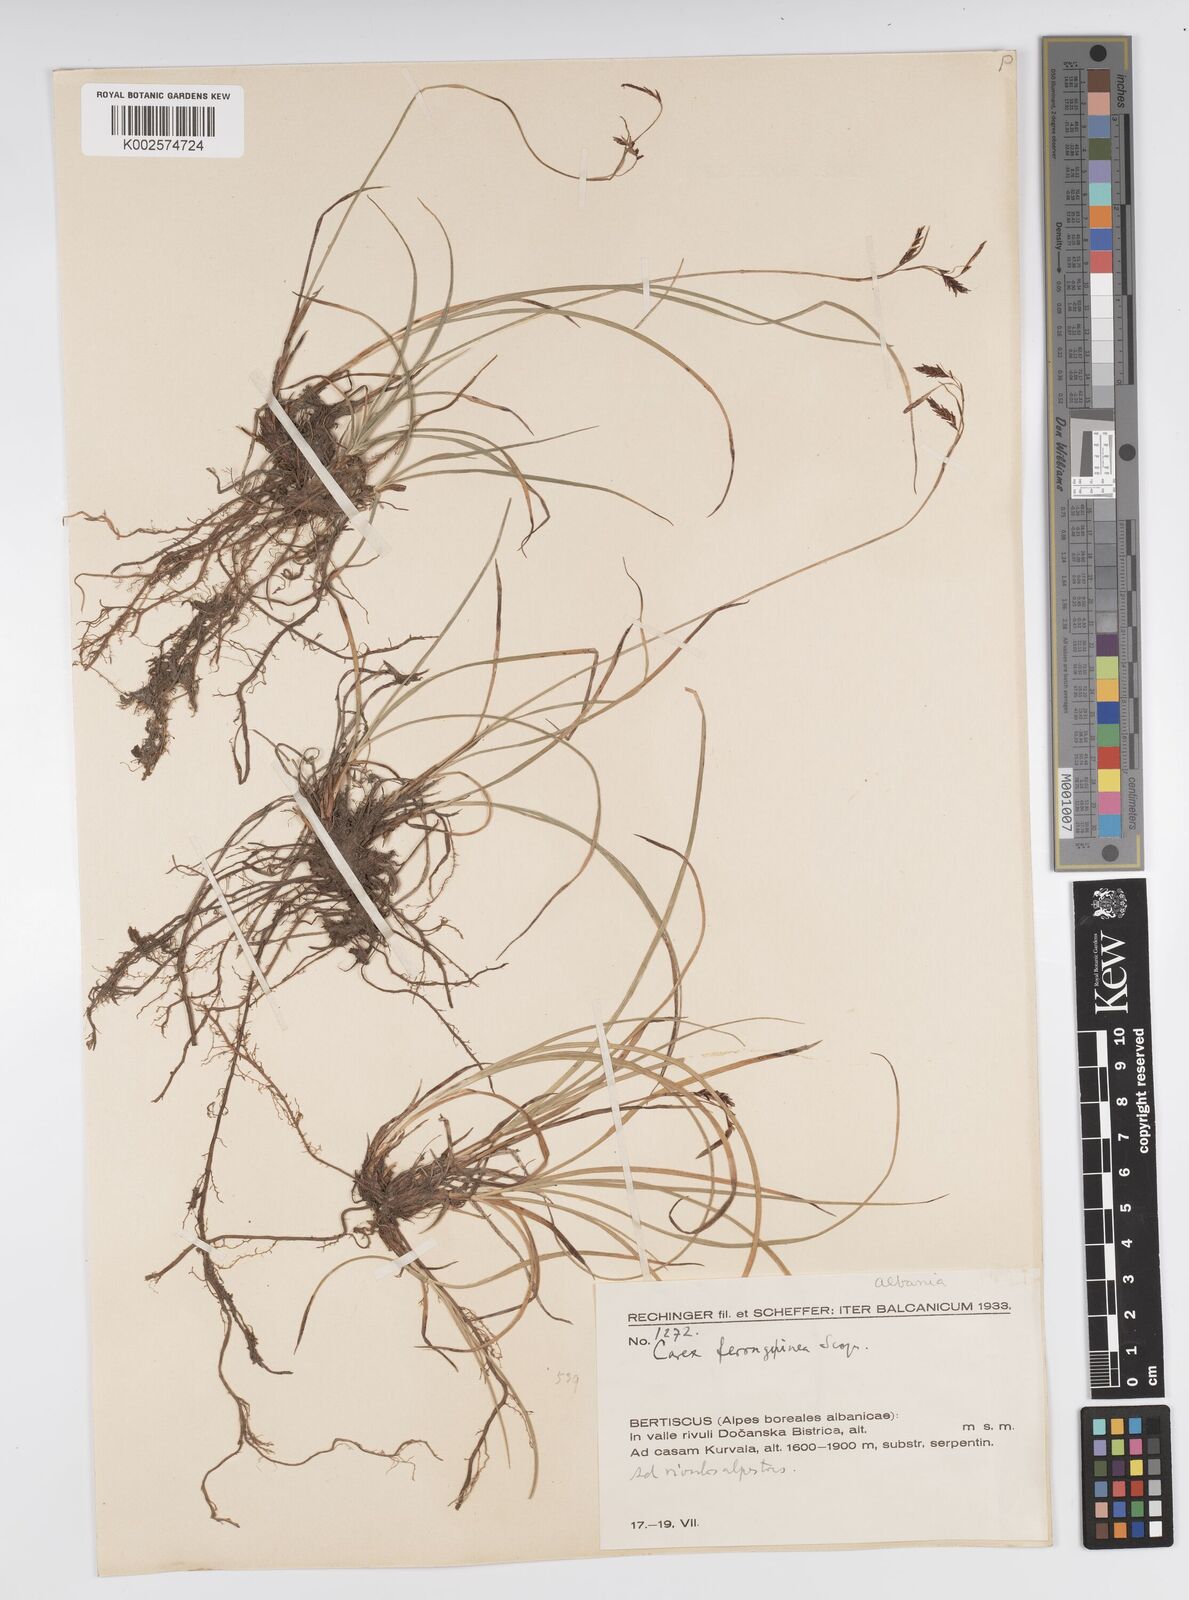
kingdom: Plantae
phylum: Tracheophyta
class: Liliopsida
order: Poales
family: Cyperaceae
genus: Carex
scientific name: Carex ferruginea
